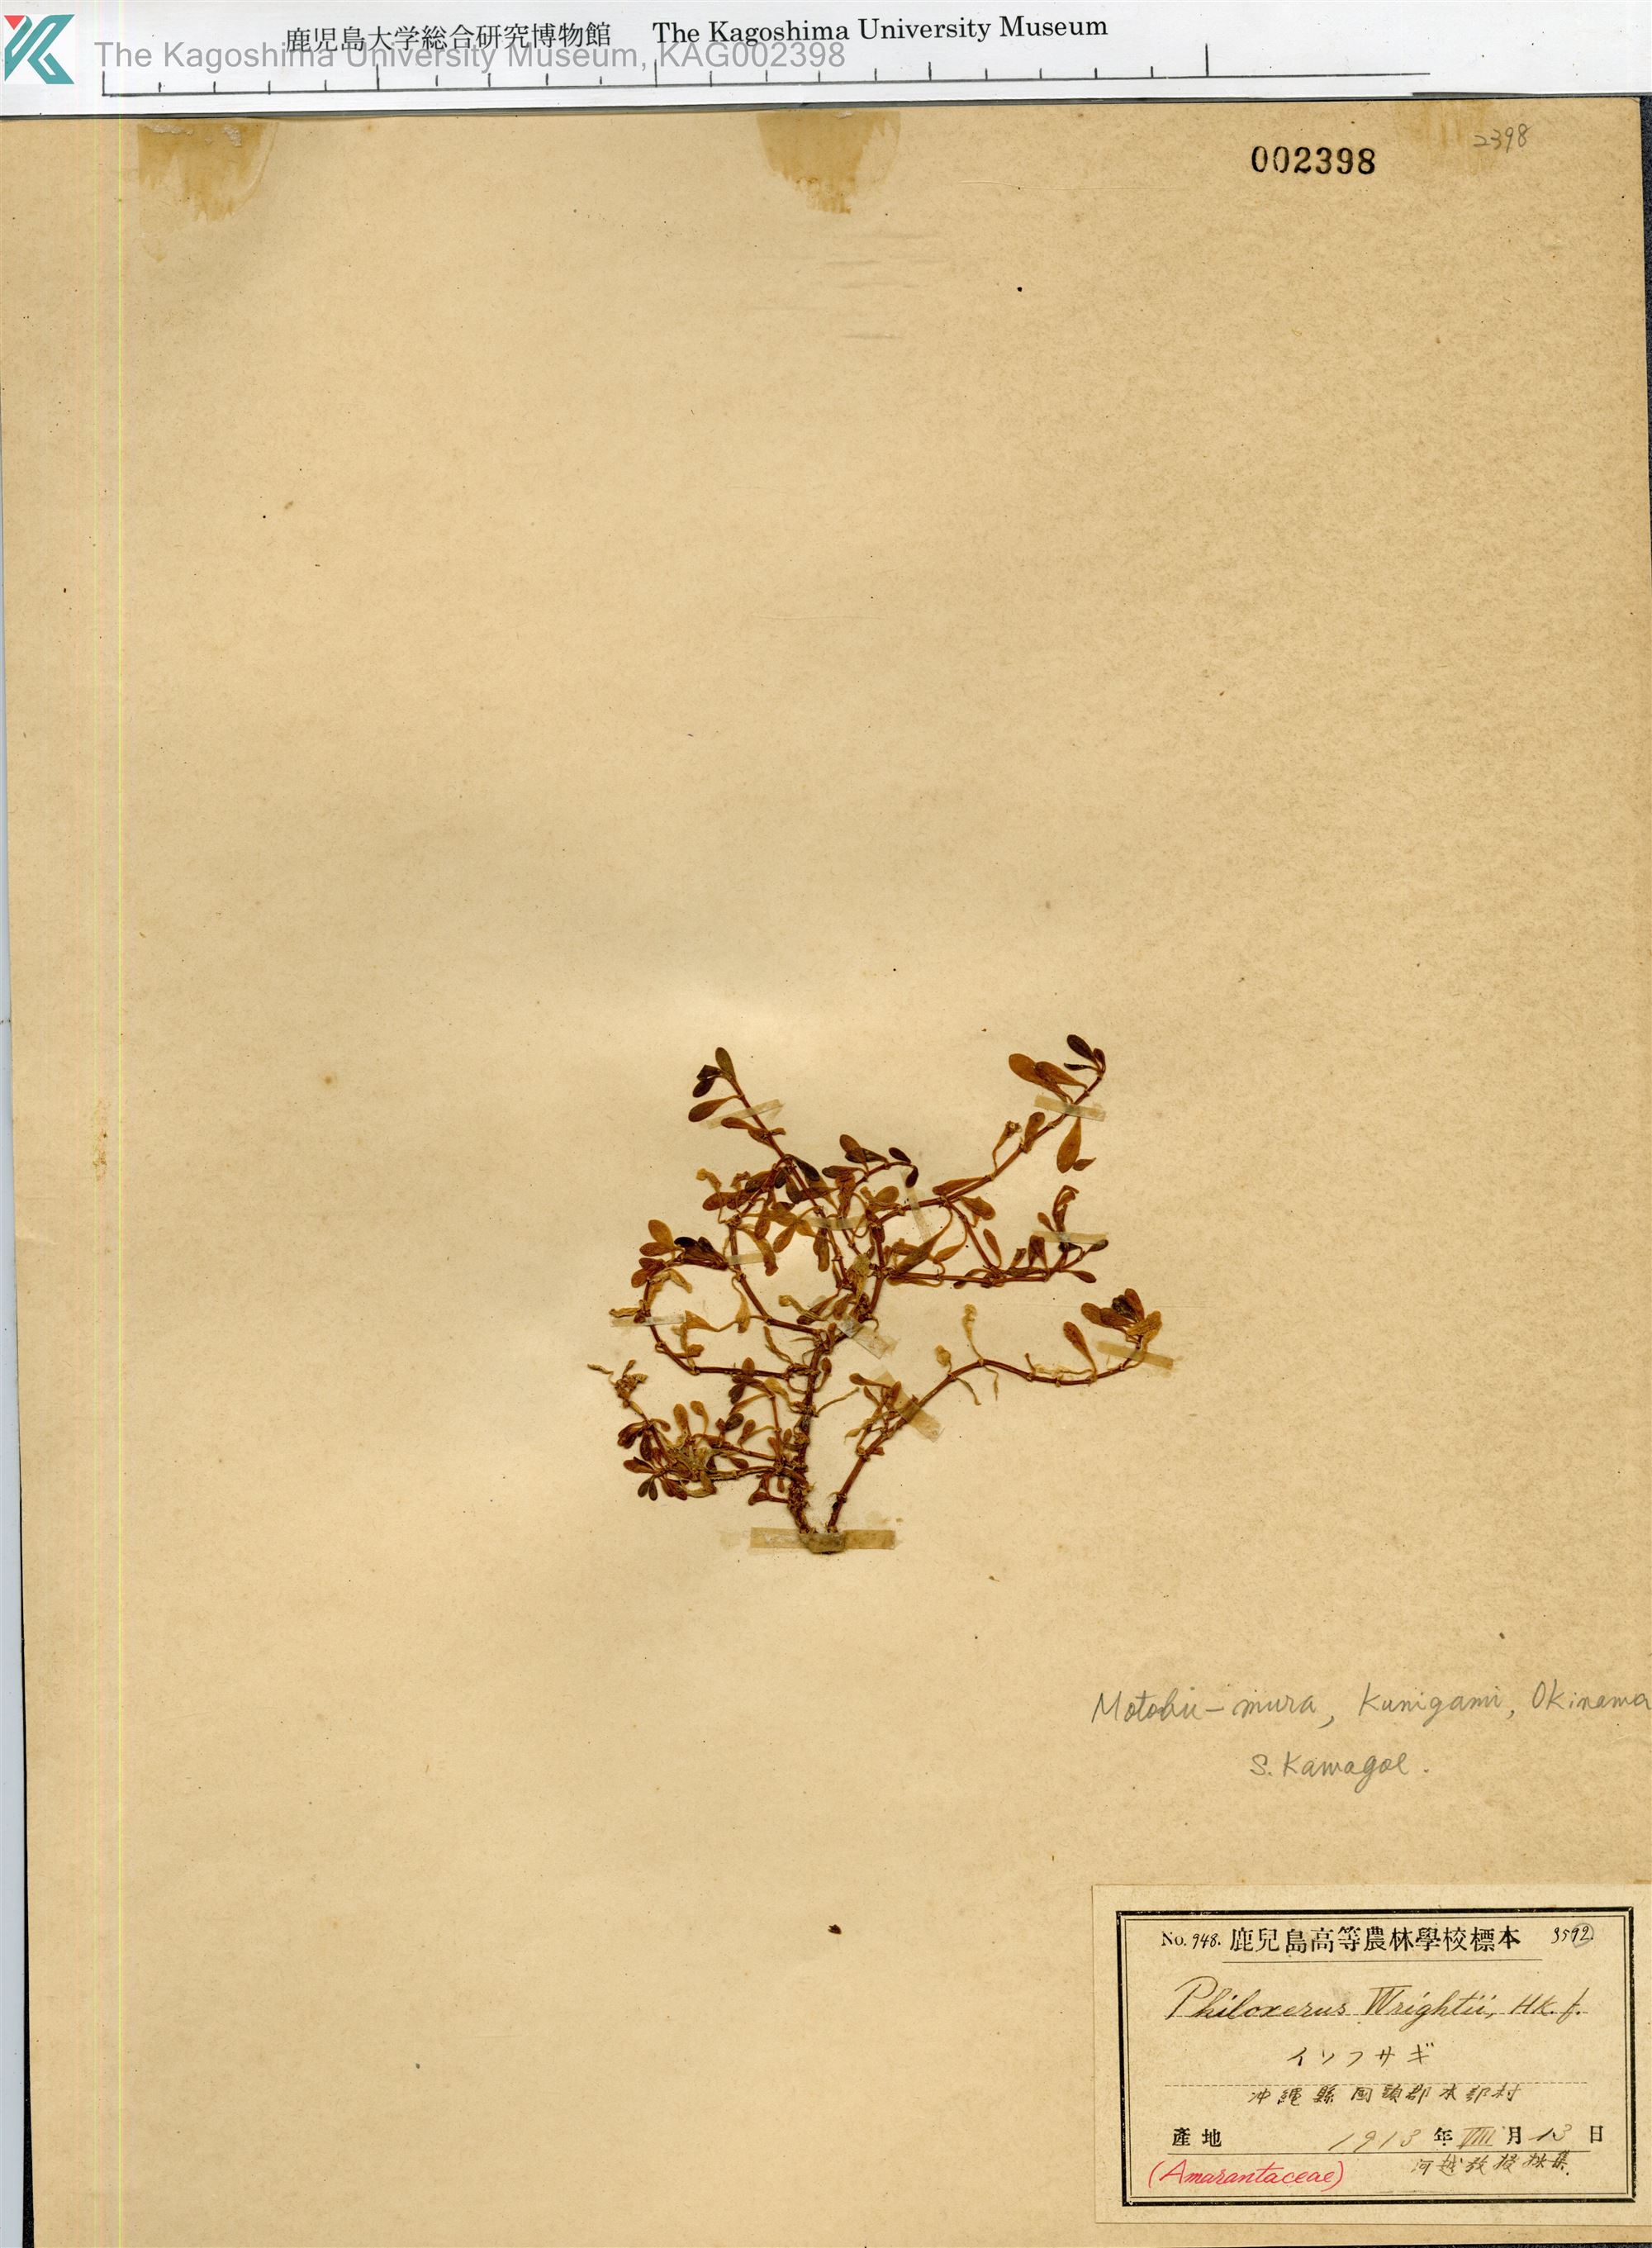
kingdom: Plantae
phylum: Tracheophyta
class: Magnoliopsida
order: Caryophyllales
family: Amaranthaceae
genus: Gomphrena
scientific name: Gomphrena wrightii
